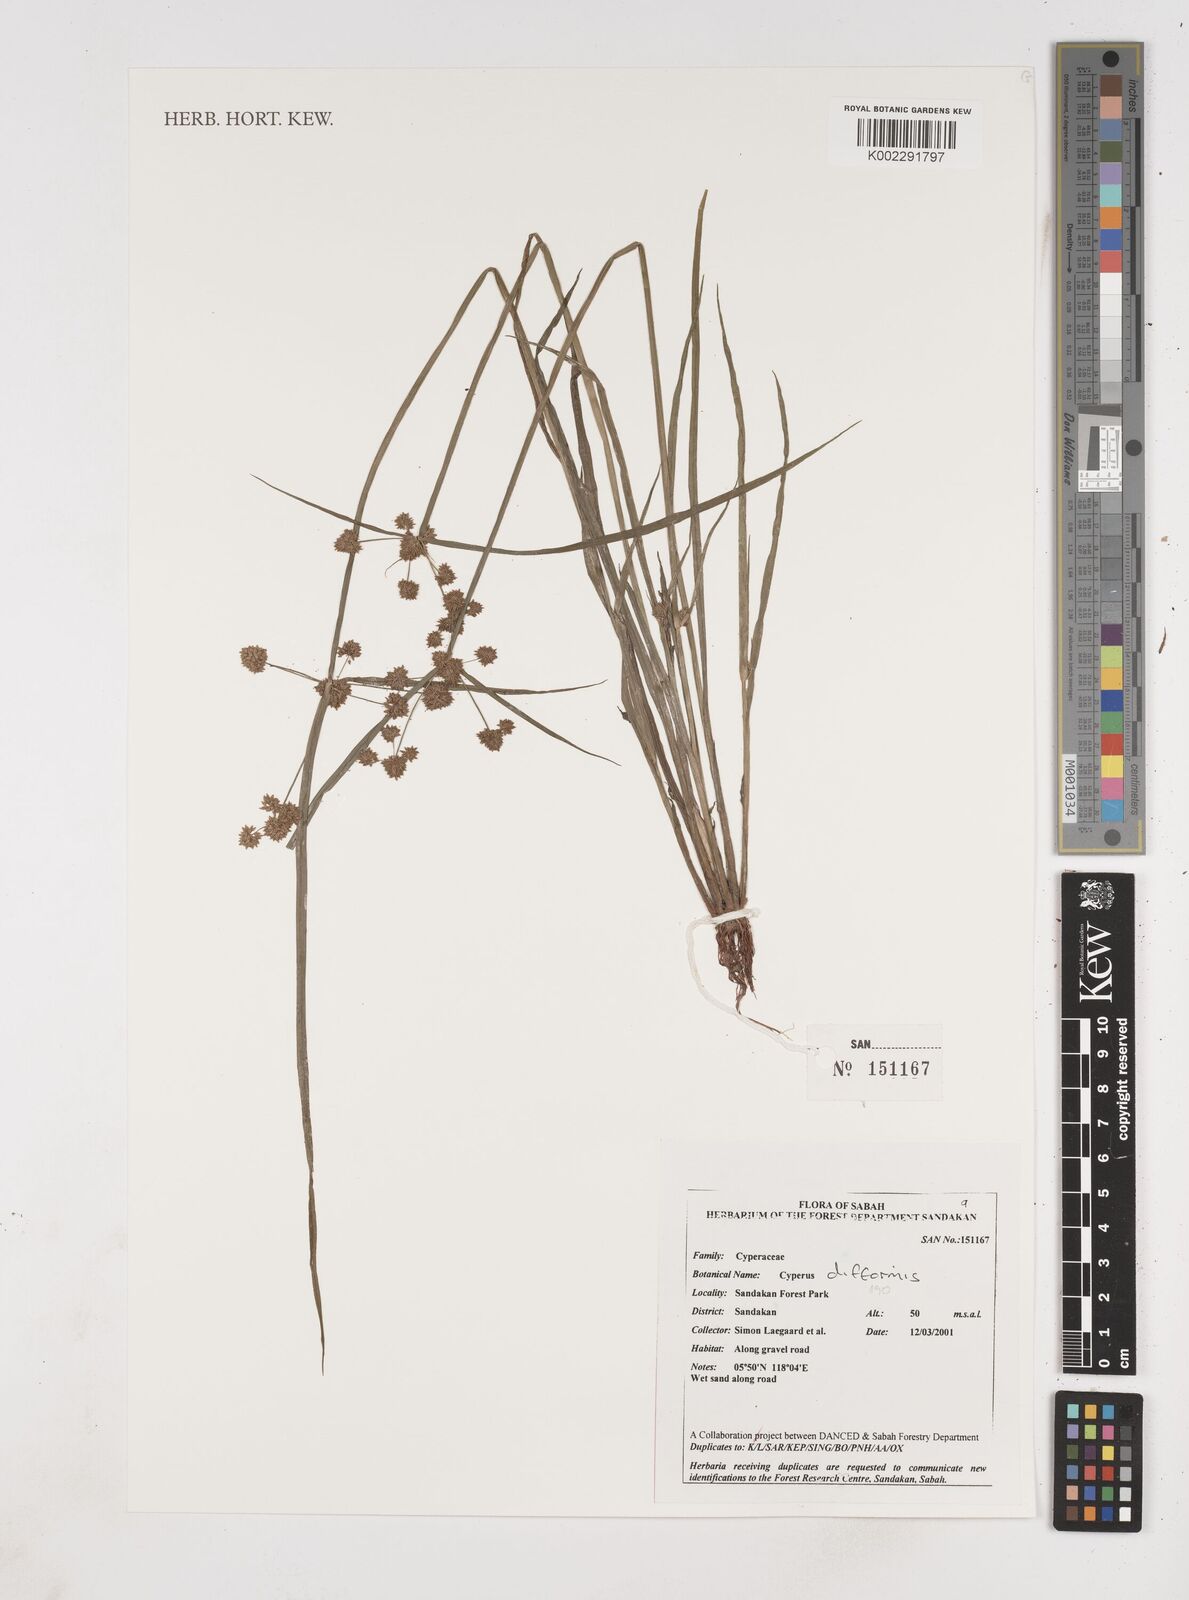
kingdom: Plantae
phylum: Tracheophyta
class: Liliopsida
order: Poales
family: Cyperaceae
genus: Cyperus
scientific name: Cyperus difformis
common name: Variable flatsedge
